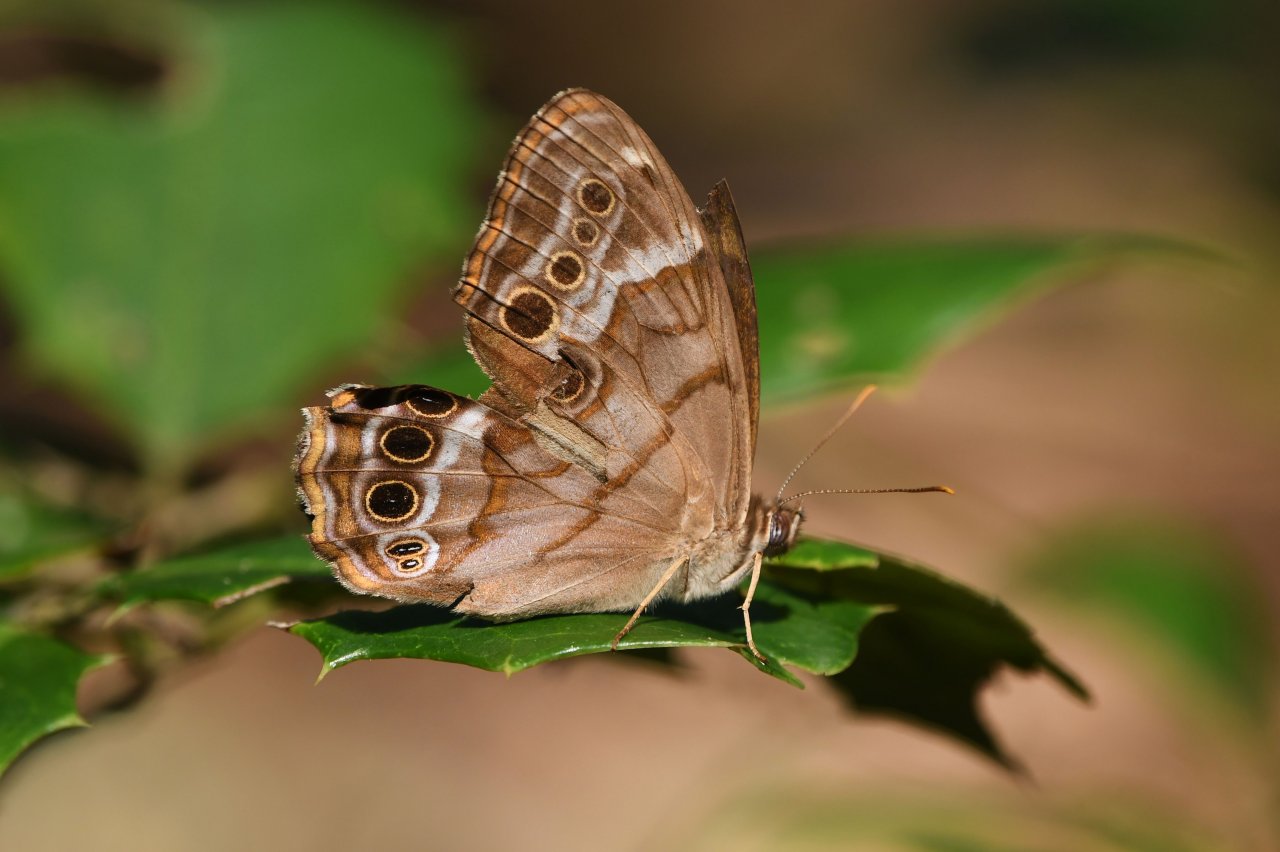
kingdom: Animalia
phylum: Arthropoda
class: Insecta
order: Lepidoptera
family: Nymphalidae
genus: Enodia
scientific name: Enodia portlandia
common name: Southern Pearly Eye
